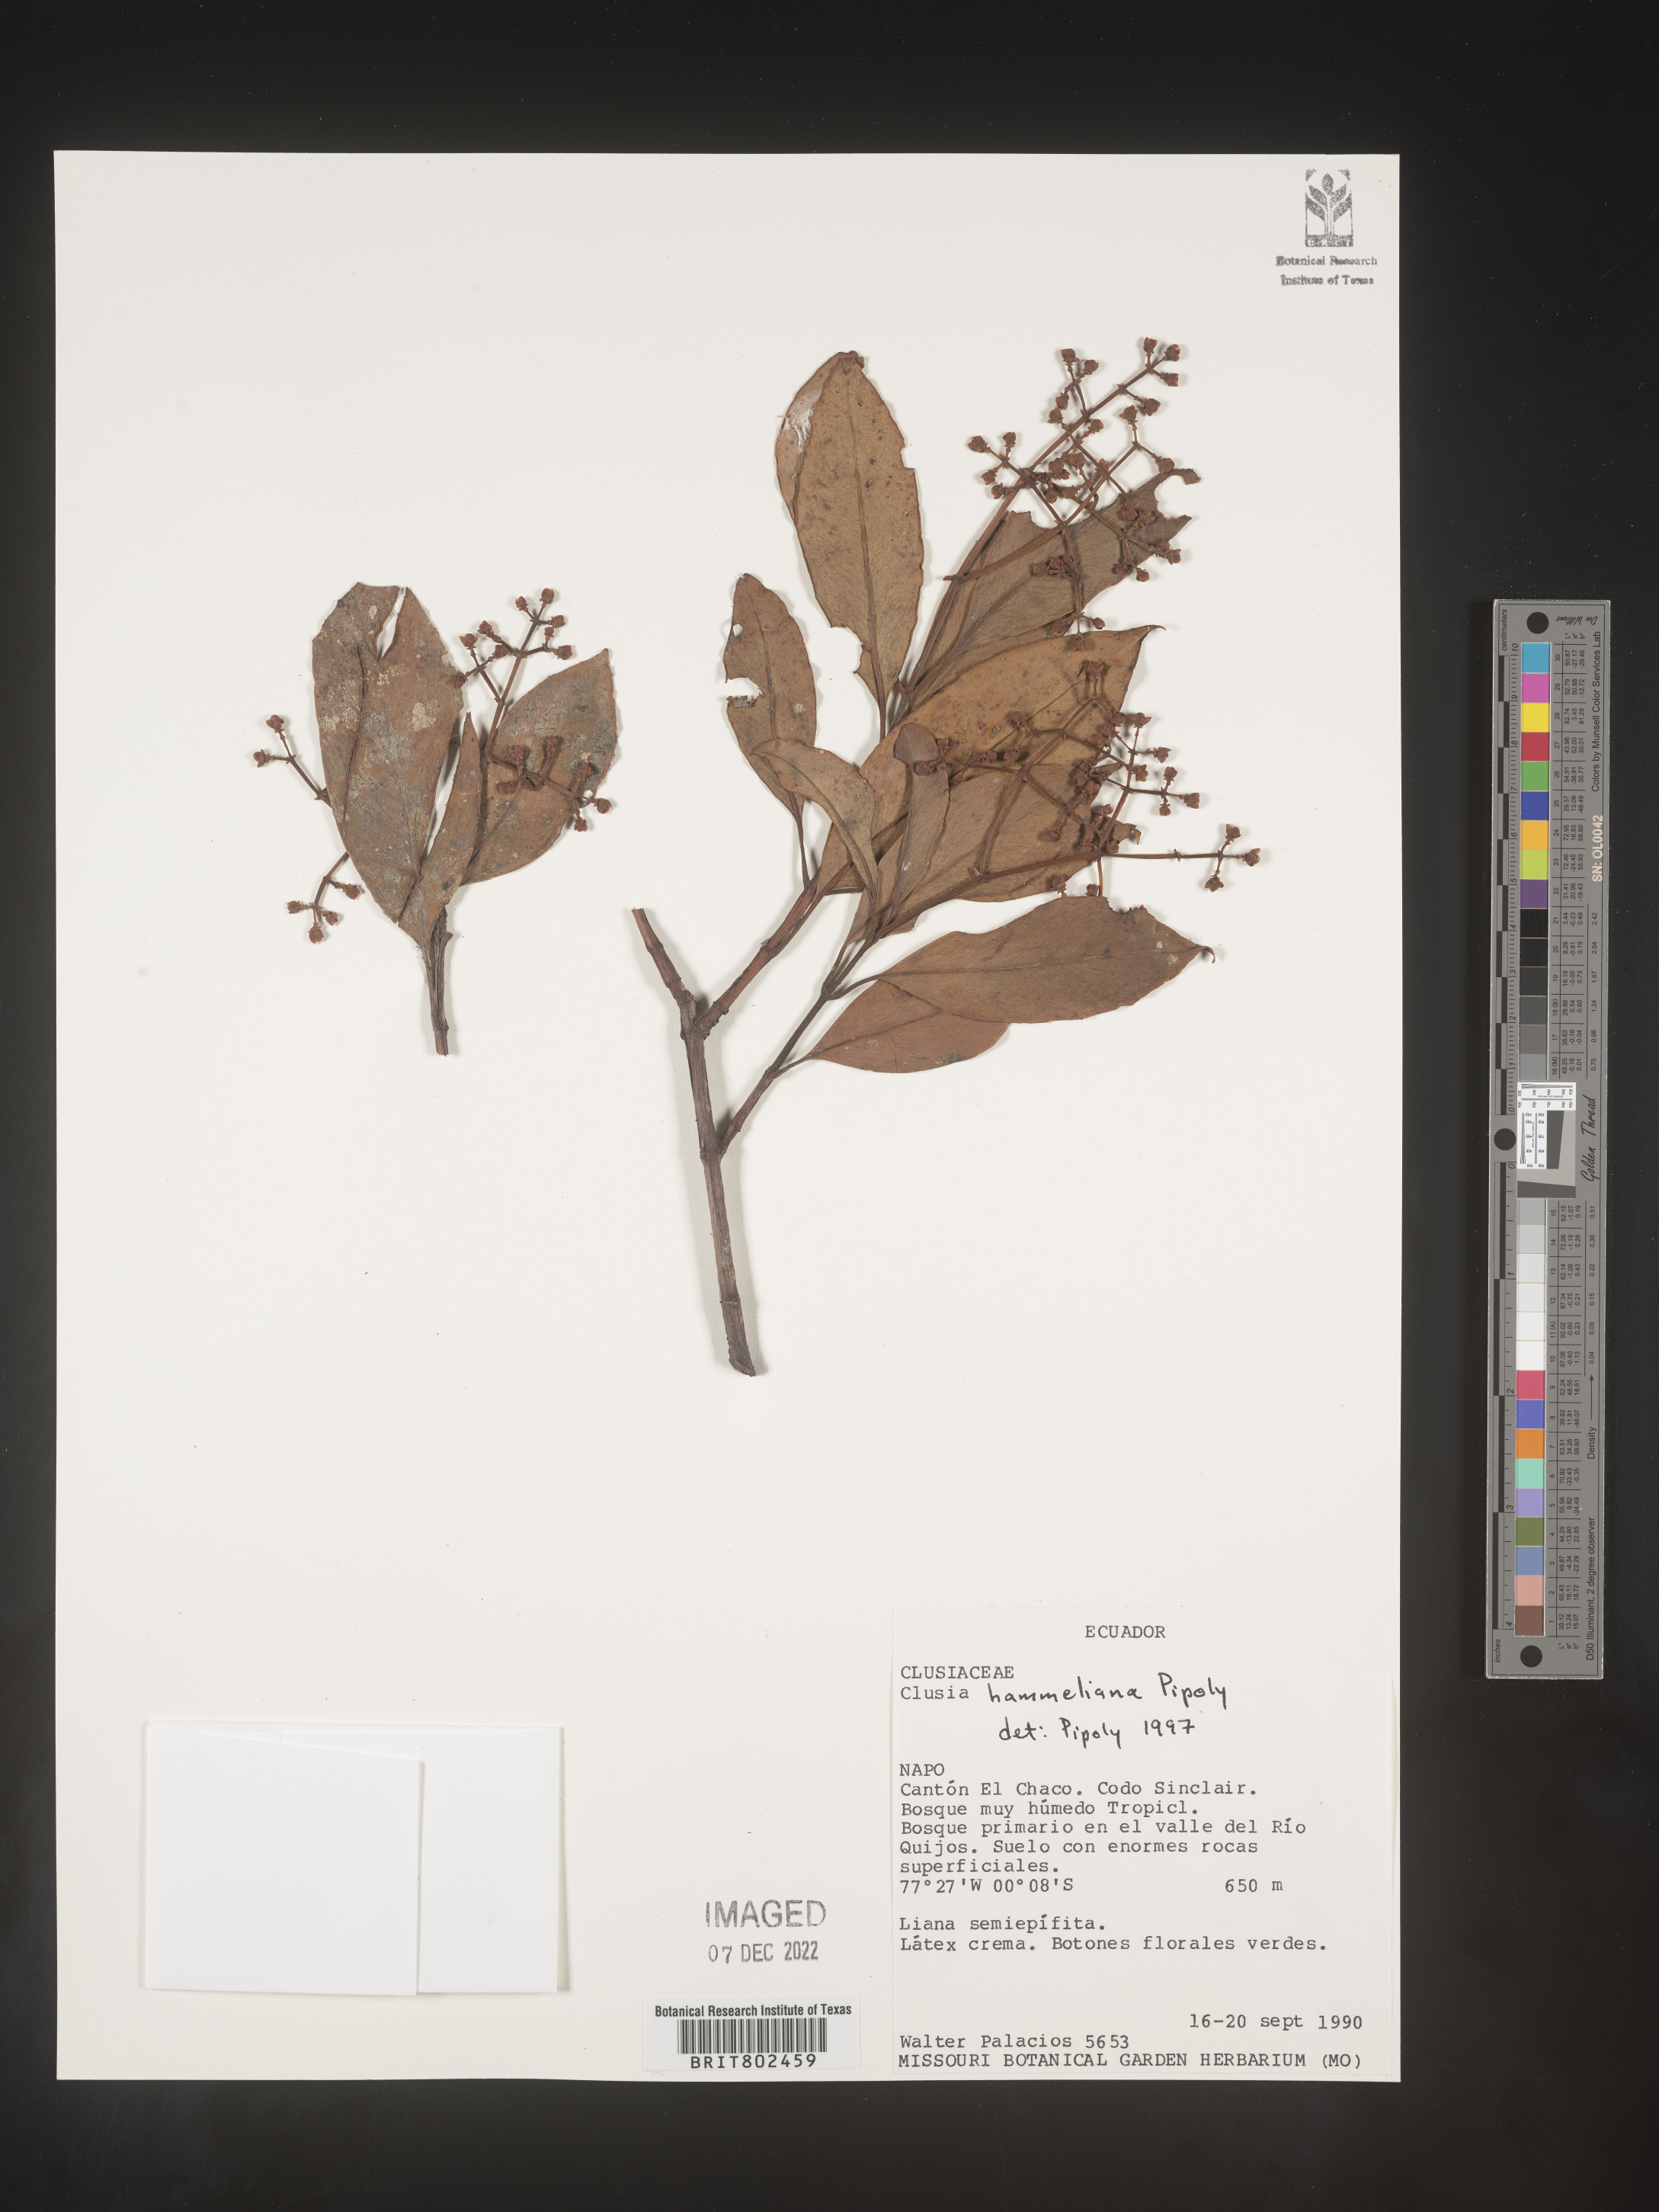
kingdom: Plantae
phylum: Tracheophyta
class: Magnoliopsida
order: Malpighiales
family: Clusiaceae
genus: Clusia
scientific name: Clusia hammeliana
